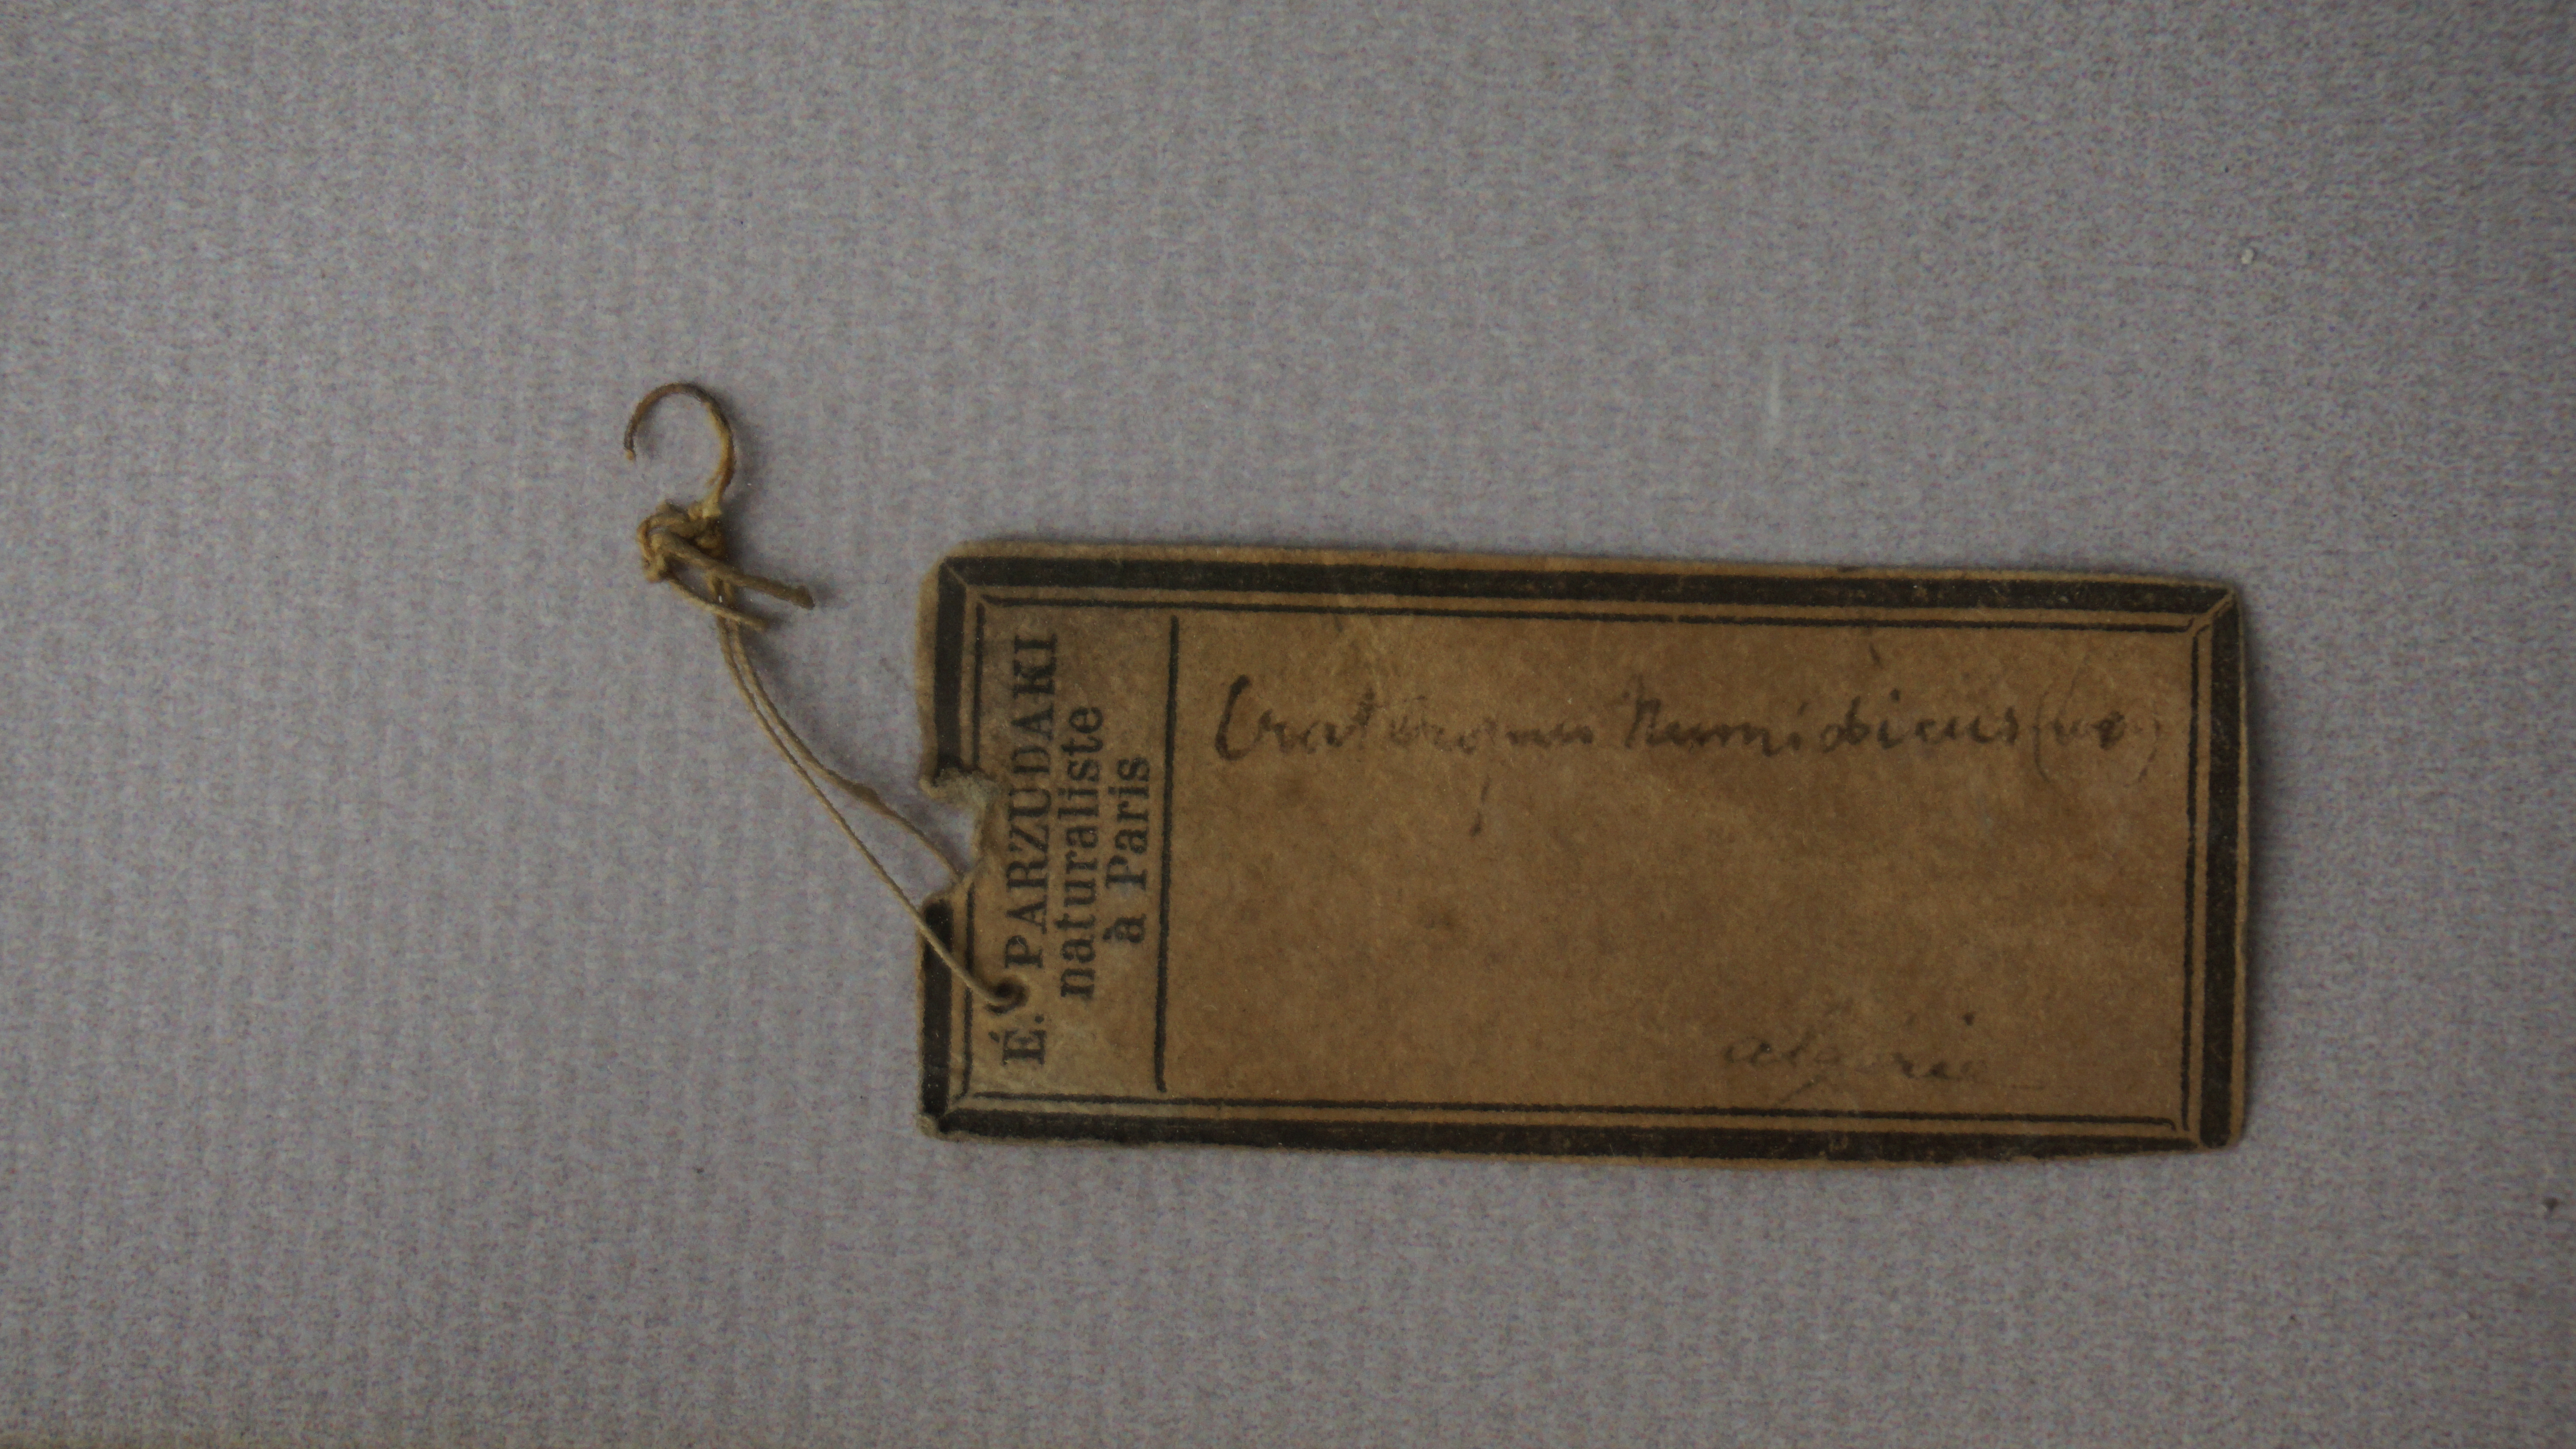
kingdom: Animalia
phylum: Chordata
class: Aves
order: Passeriformes
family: Leiothrichidae
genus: Turdoides
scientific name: Turdoides fulva
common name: Fulvous babbler
